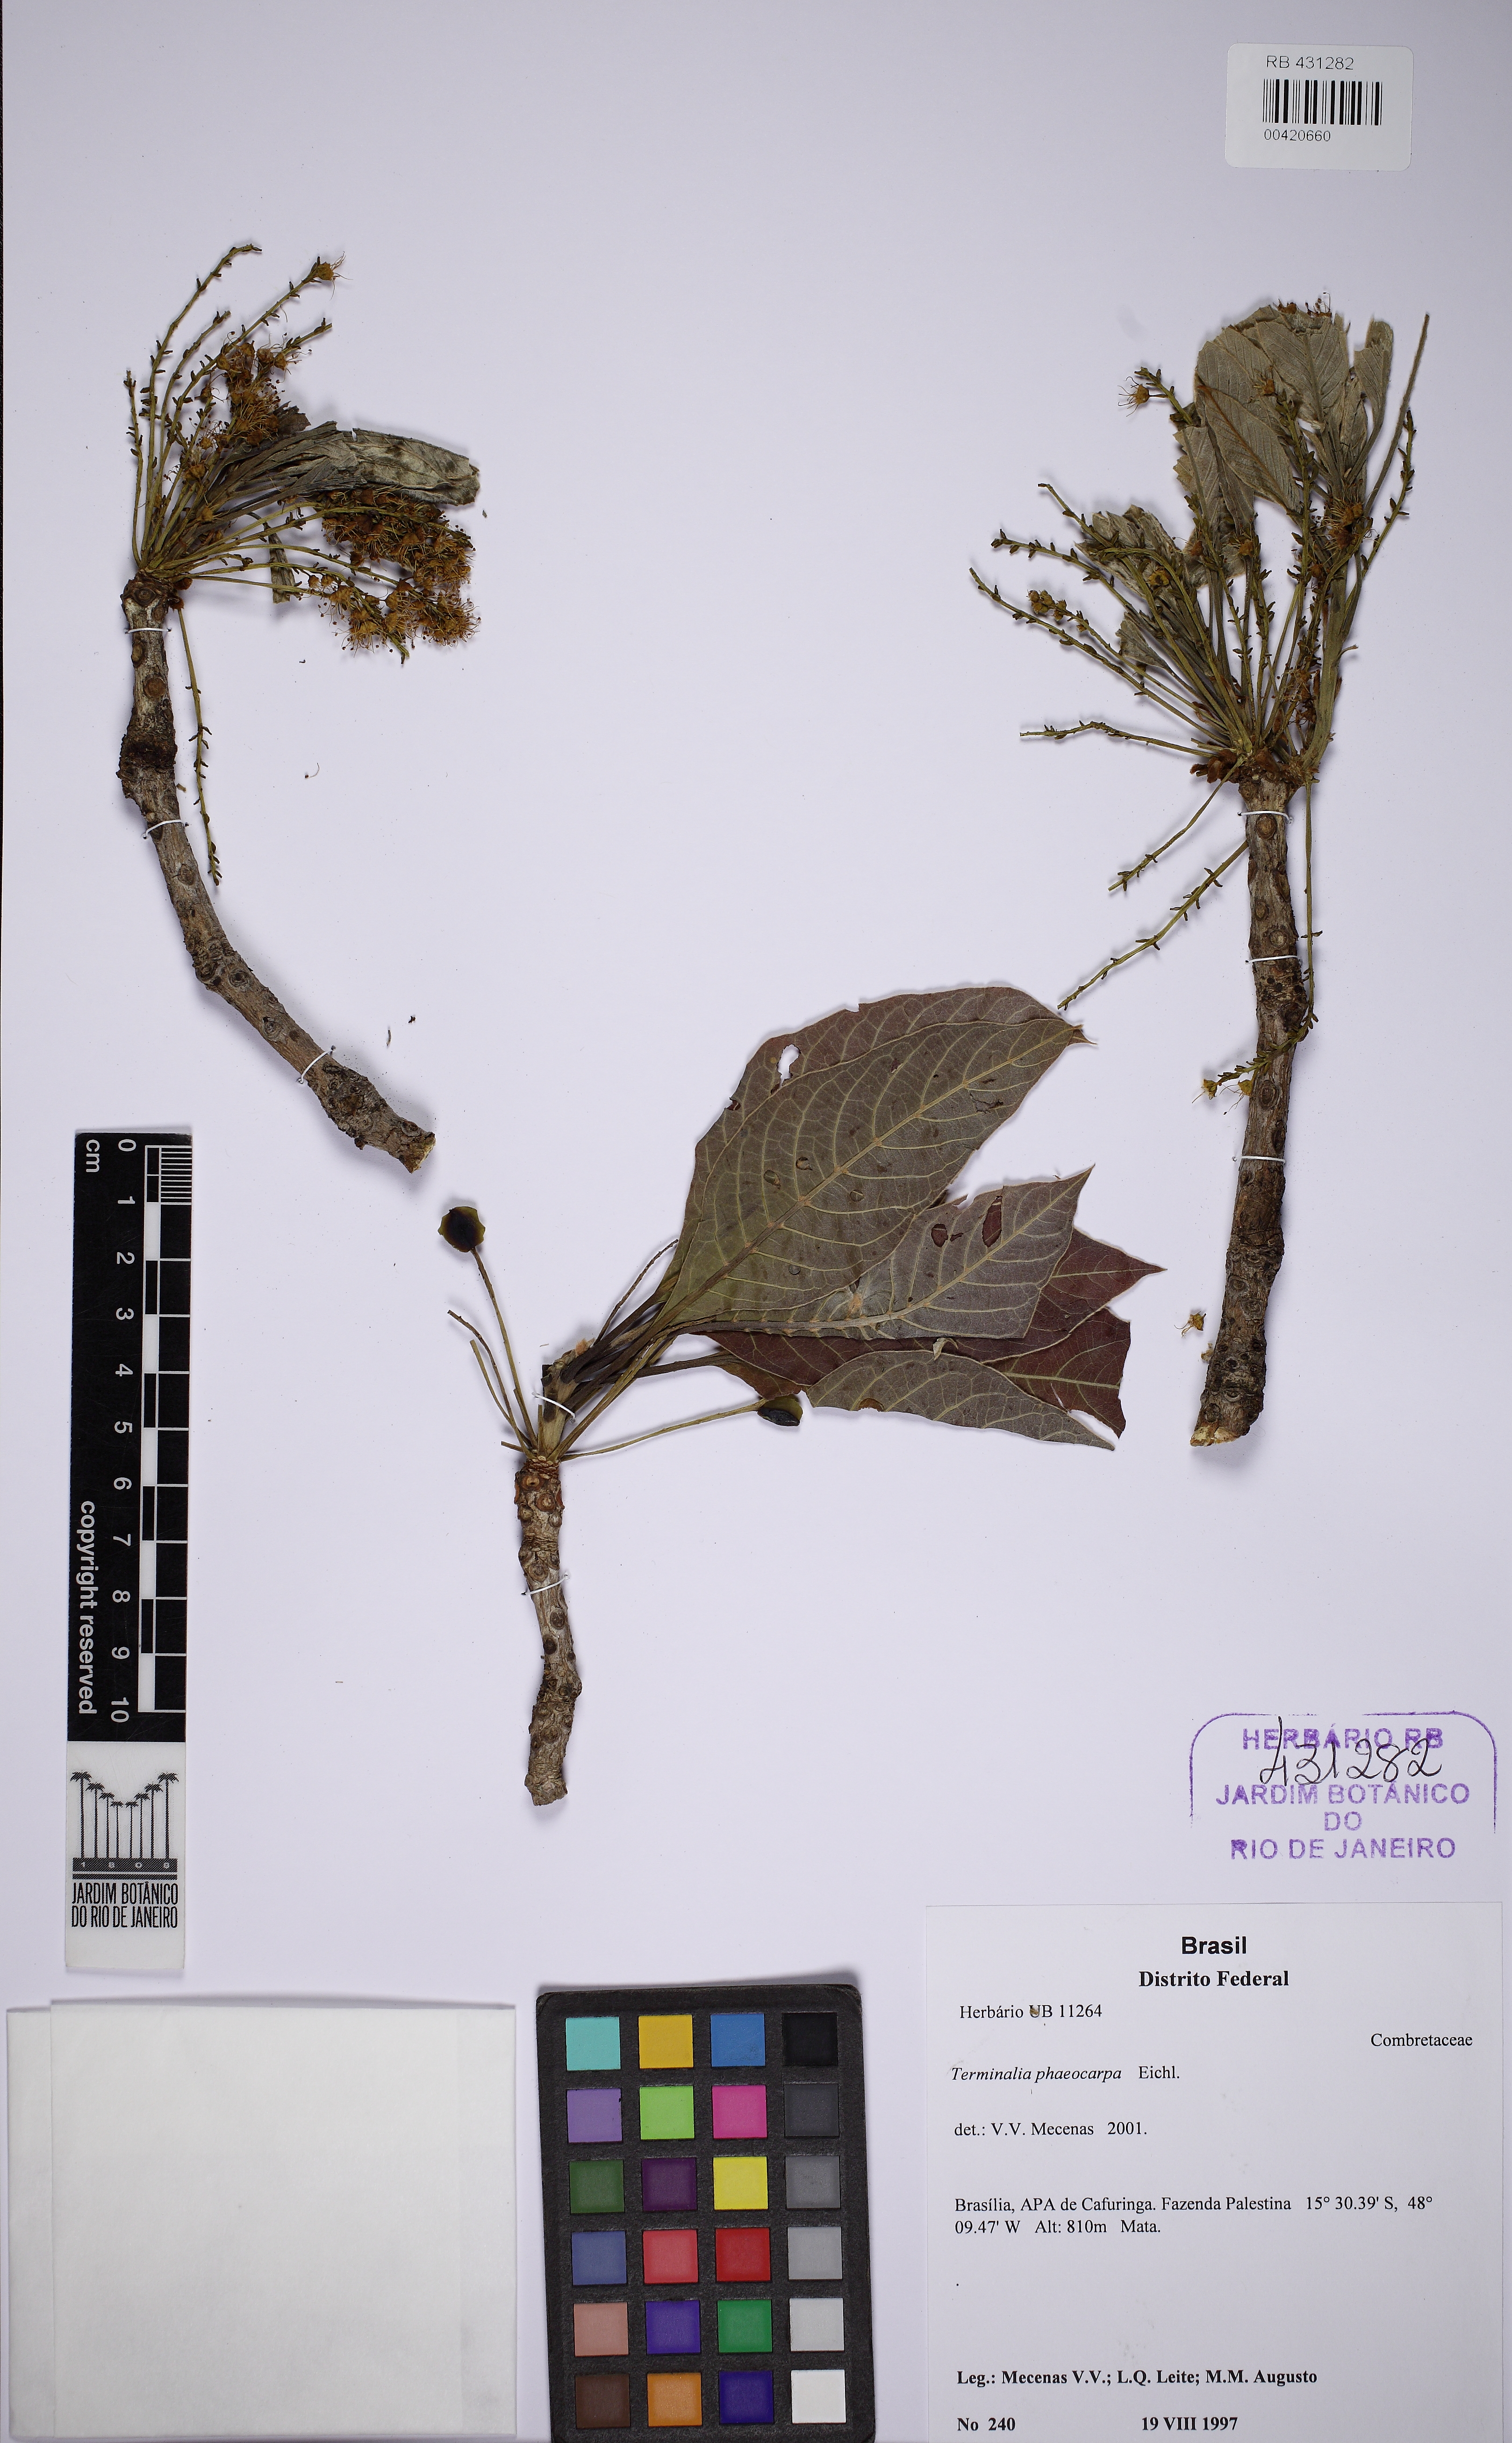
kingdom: Plantae
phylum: Tracheophyta
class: Magnoliopsida
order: Myrtales
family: Combretaceae
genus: Terminalia
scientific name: Terminalia phaeocarpa
